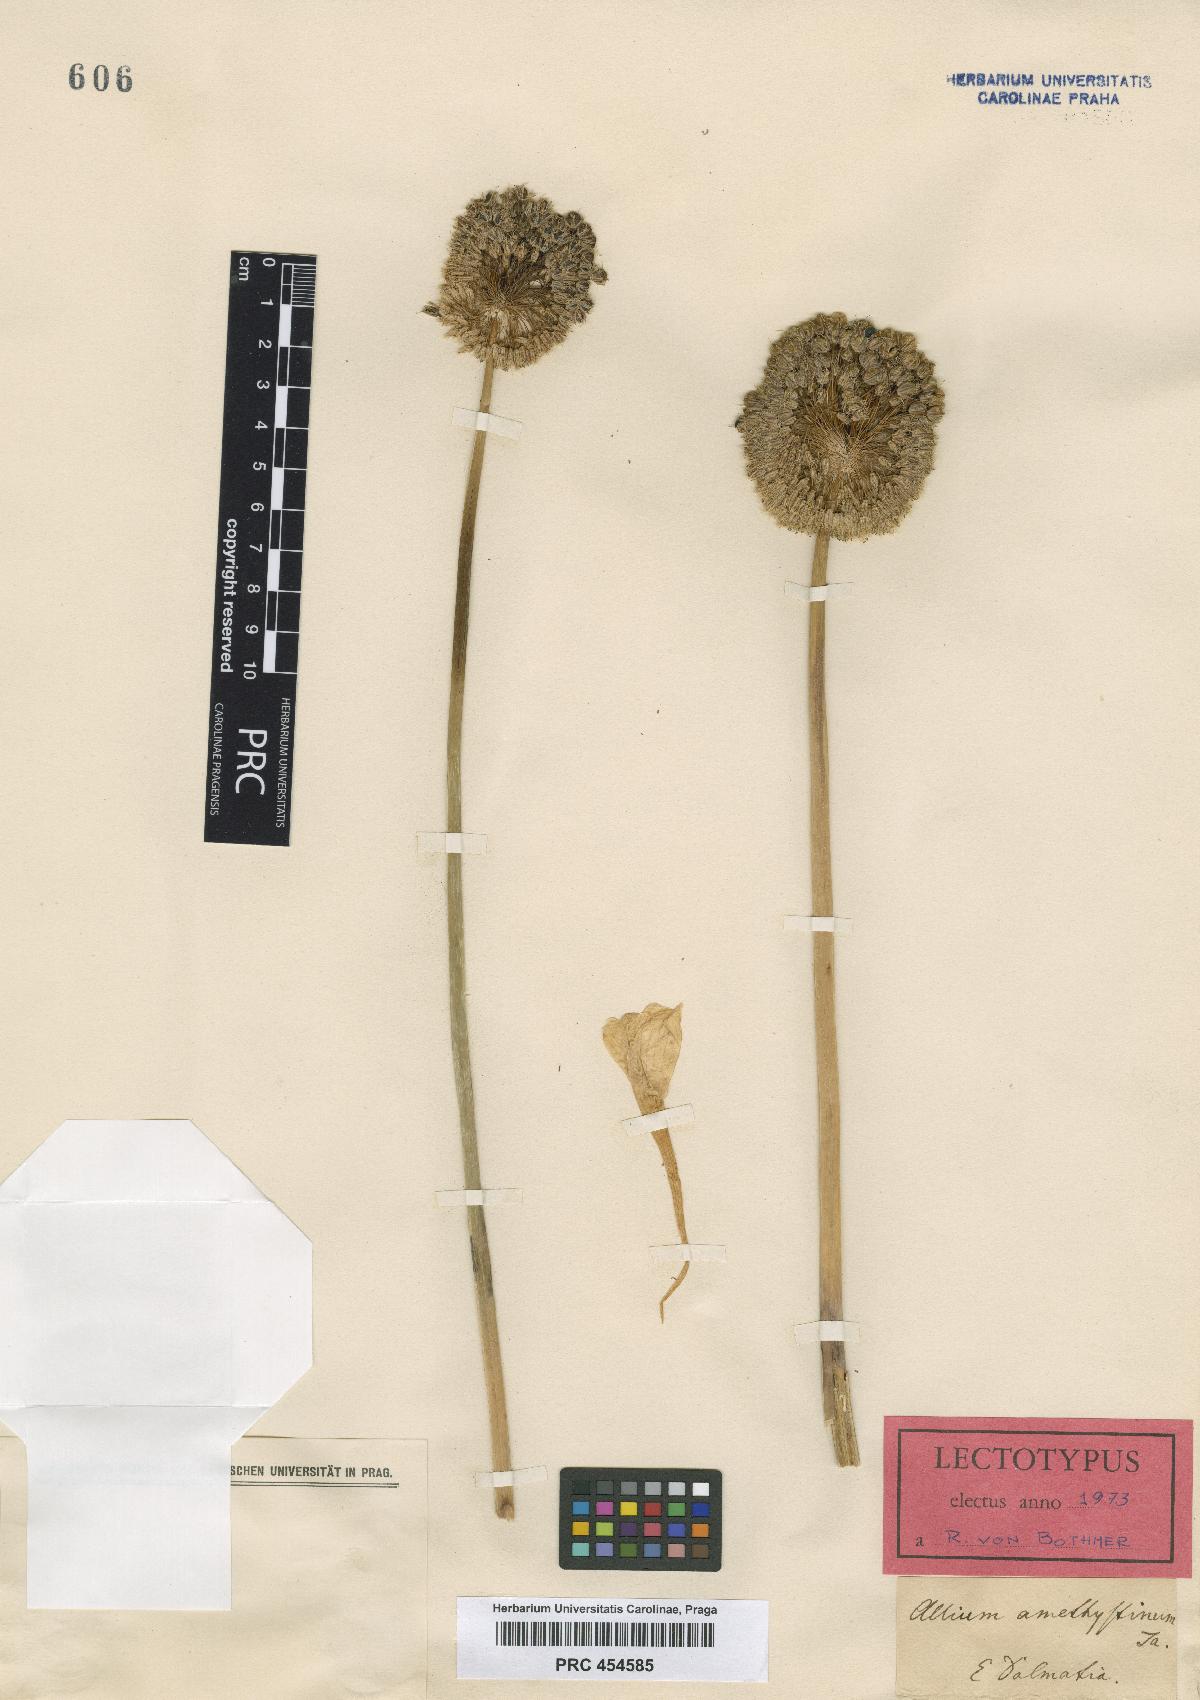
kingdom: Plantae
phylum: Tracheophyta
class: Liliopsida
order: Asparagales
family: Amaryllidaceae
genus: Allium
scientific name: Allium amethystinum
